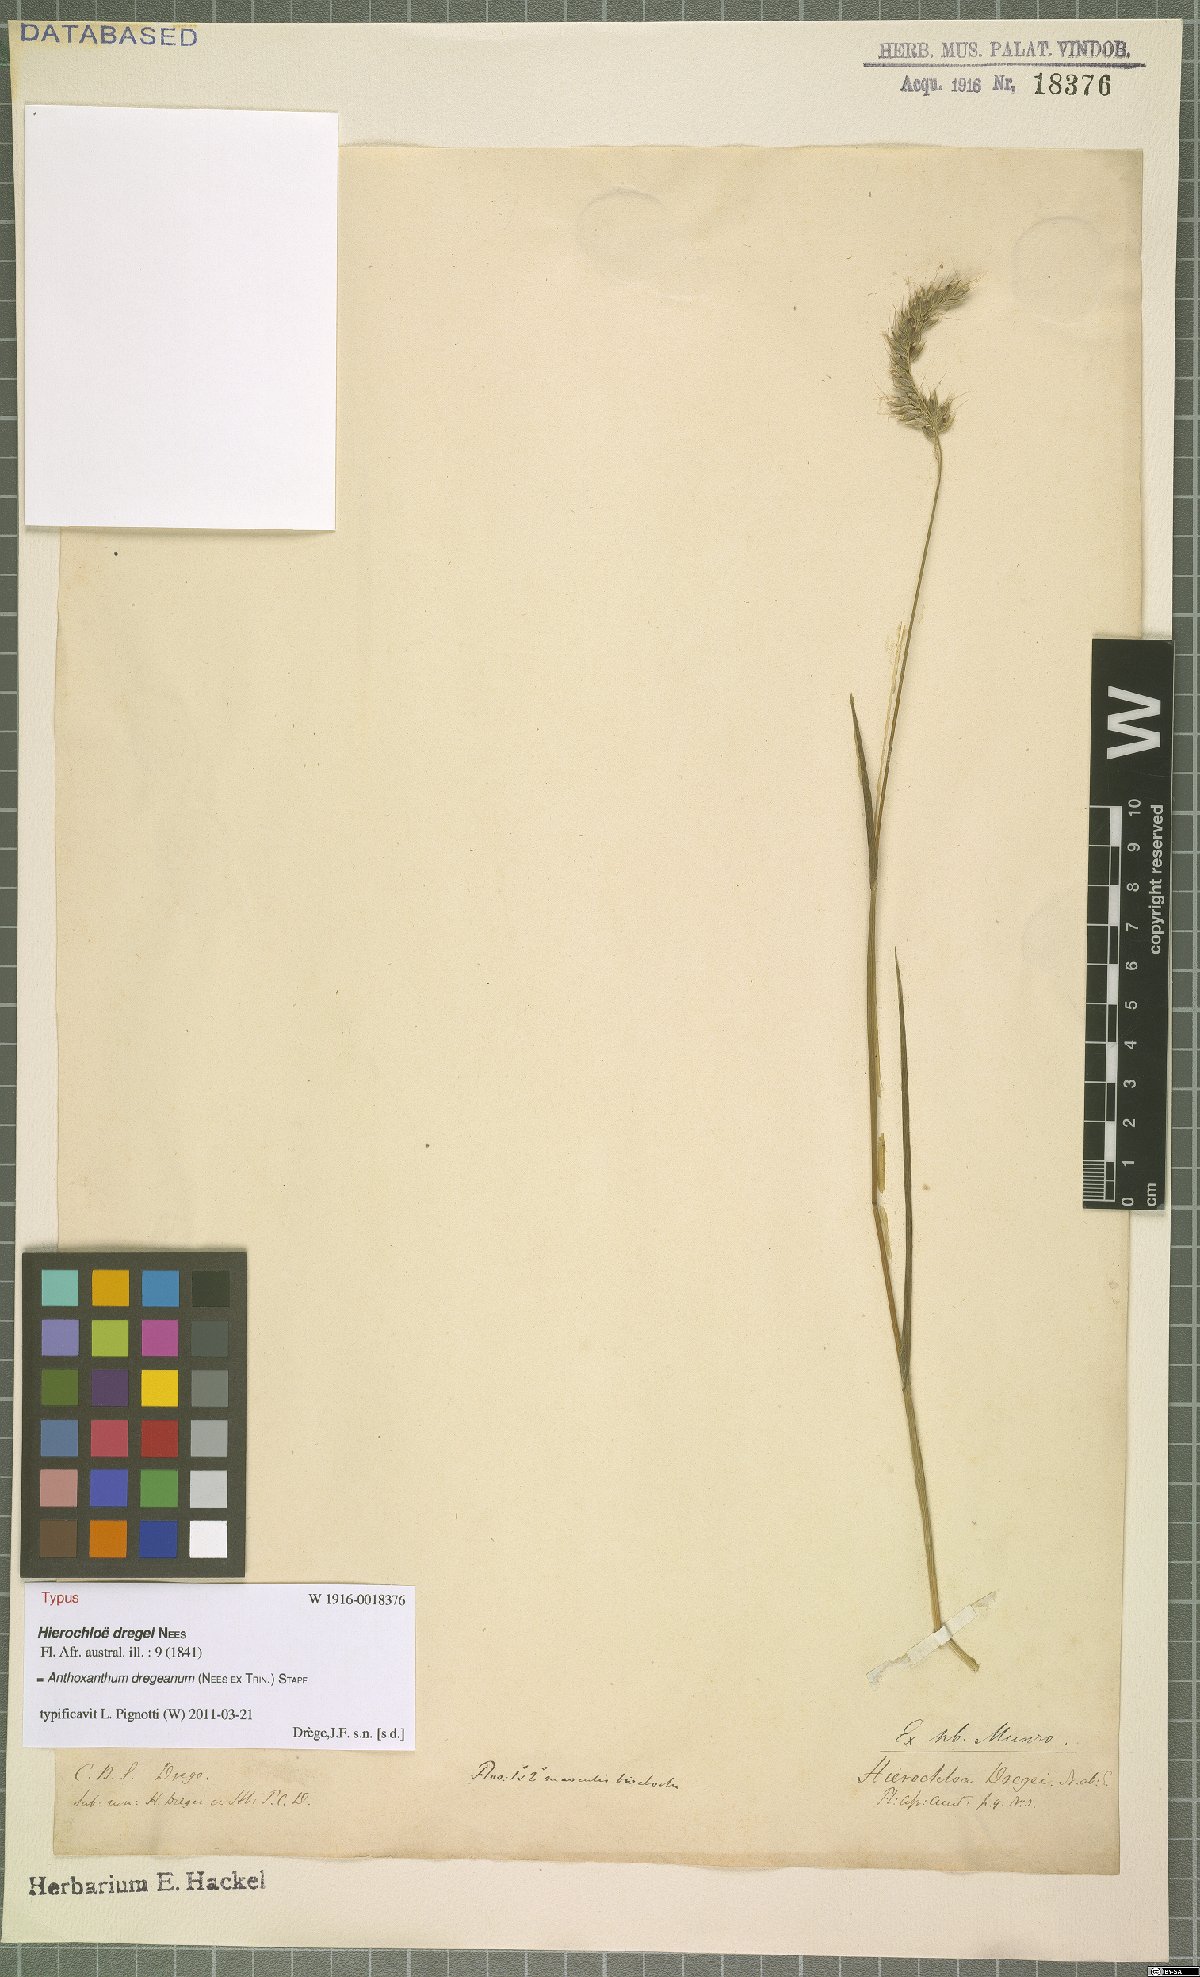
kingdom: Plantae
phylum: Tracheophyta
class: Liliopsida
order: Poales
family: Poaceae
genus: Anthoxanthum
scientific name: Anthoxanthum dregeanum
